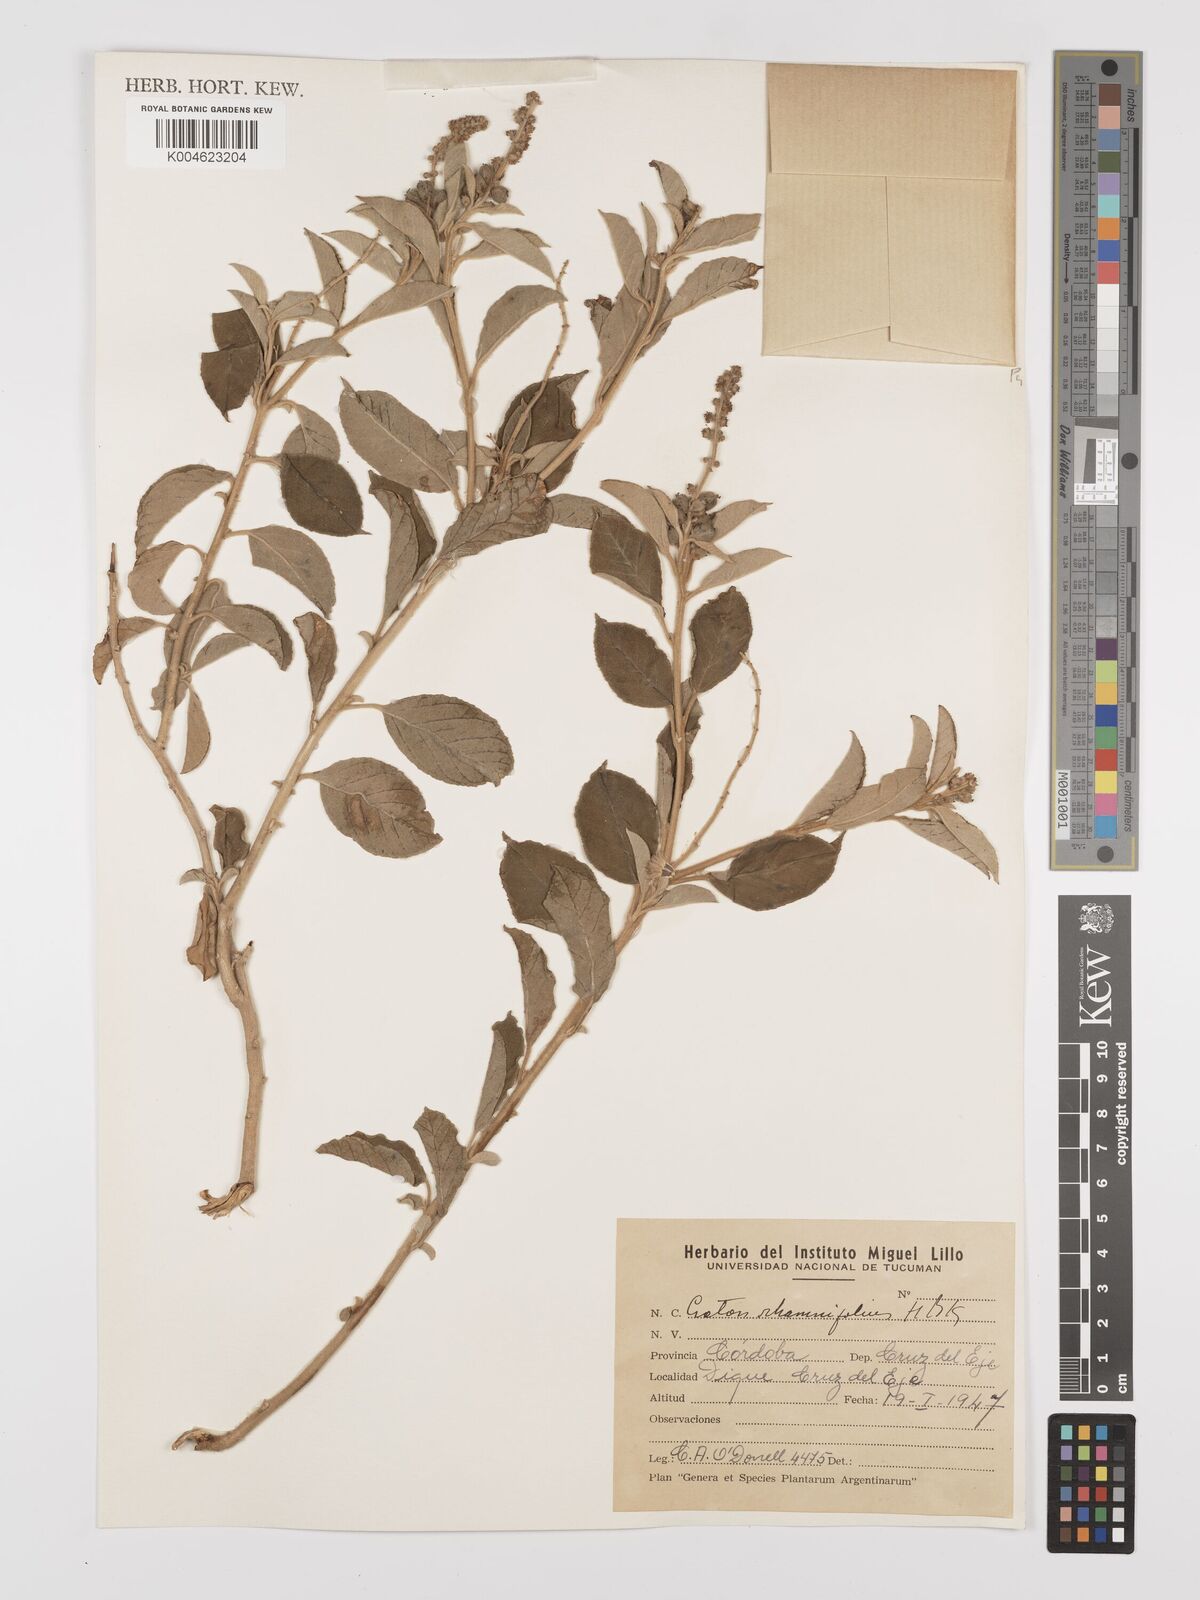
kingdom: Plantae
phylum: Tracheophyta
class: Magnoliopsida
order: Malpighiales
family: Euphorbiaceae
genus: Croton
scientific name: Croton
